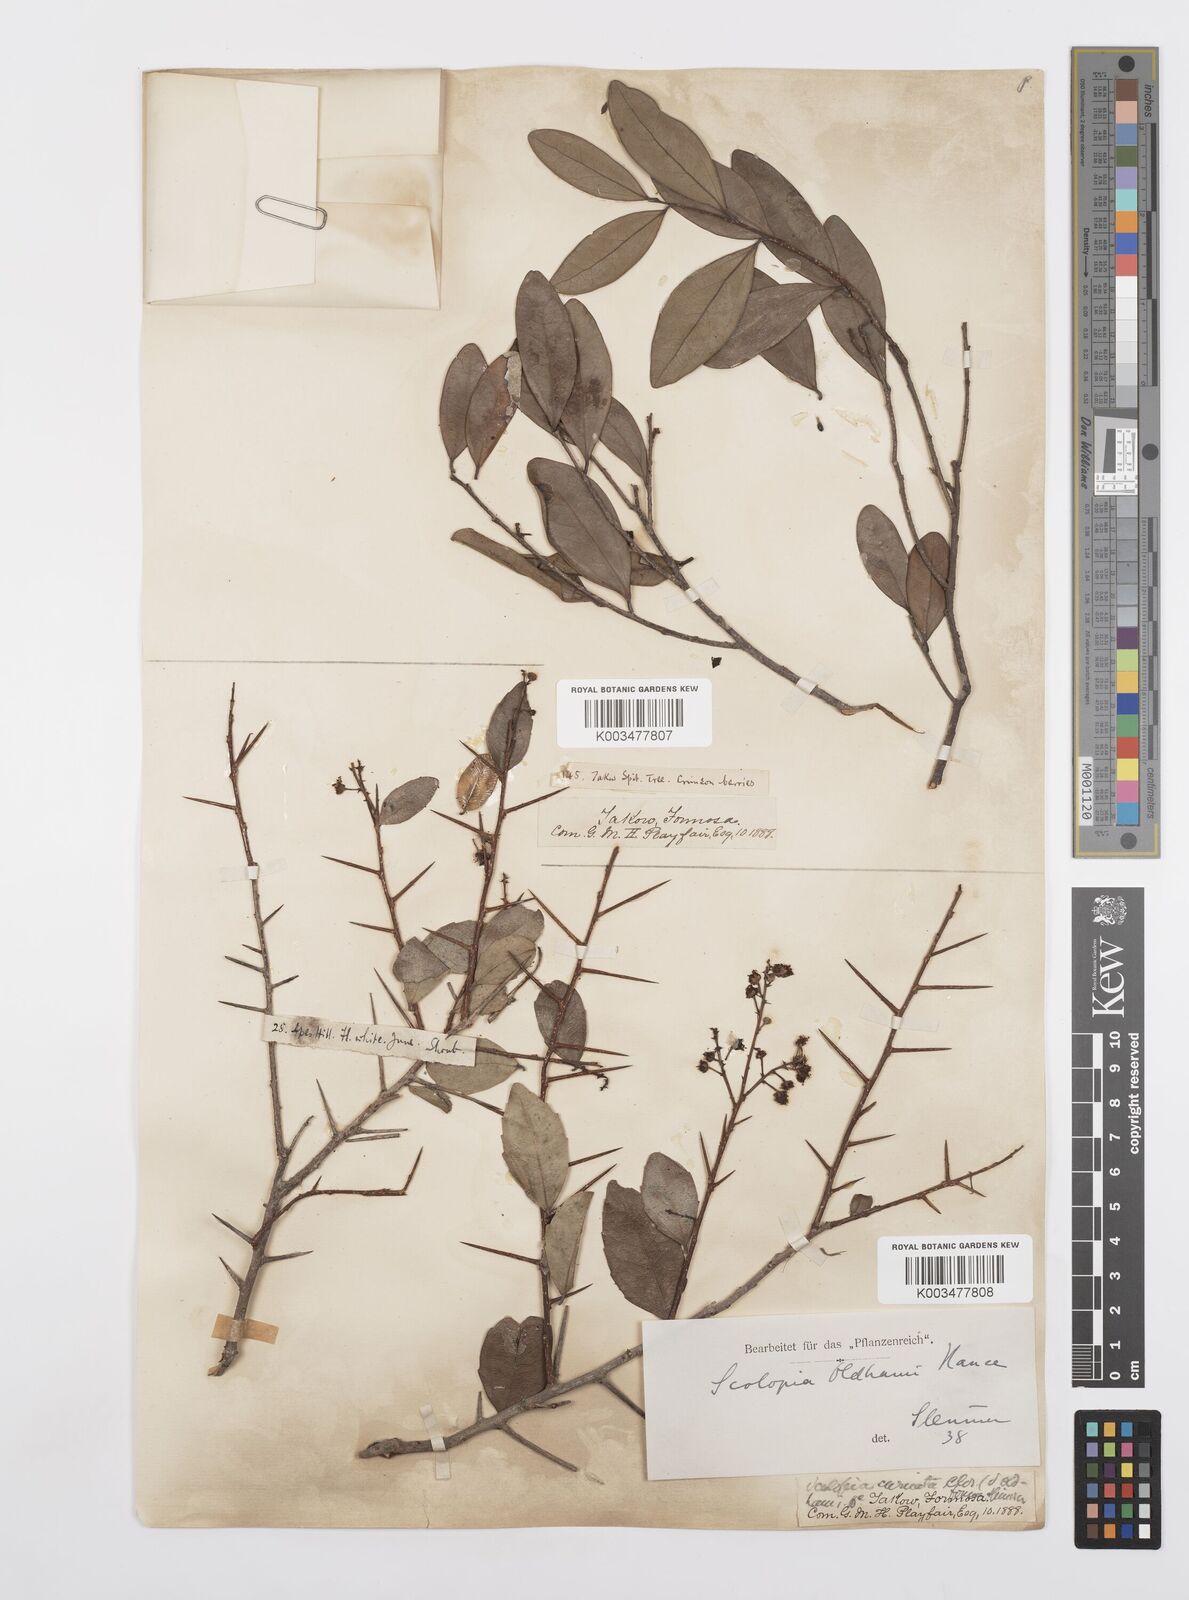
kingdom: Plantae
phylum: Tracheophyta
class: Magnoliopsida
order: Malpighiales
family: Salicaceae
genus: Scolopia
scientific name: Scolopia oldhamii
